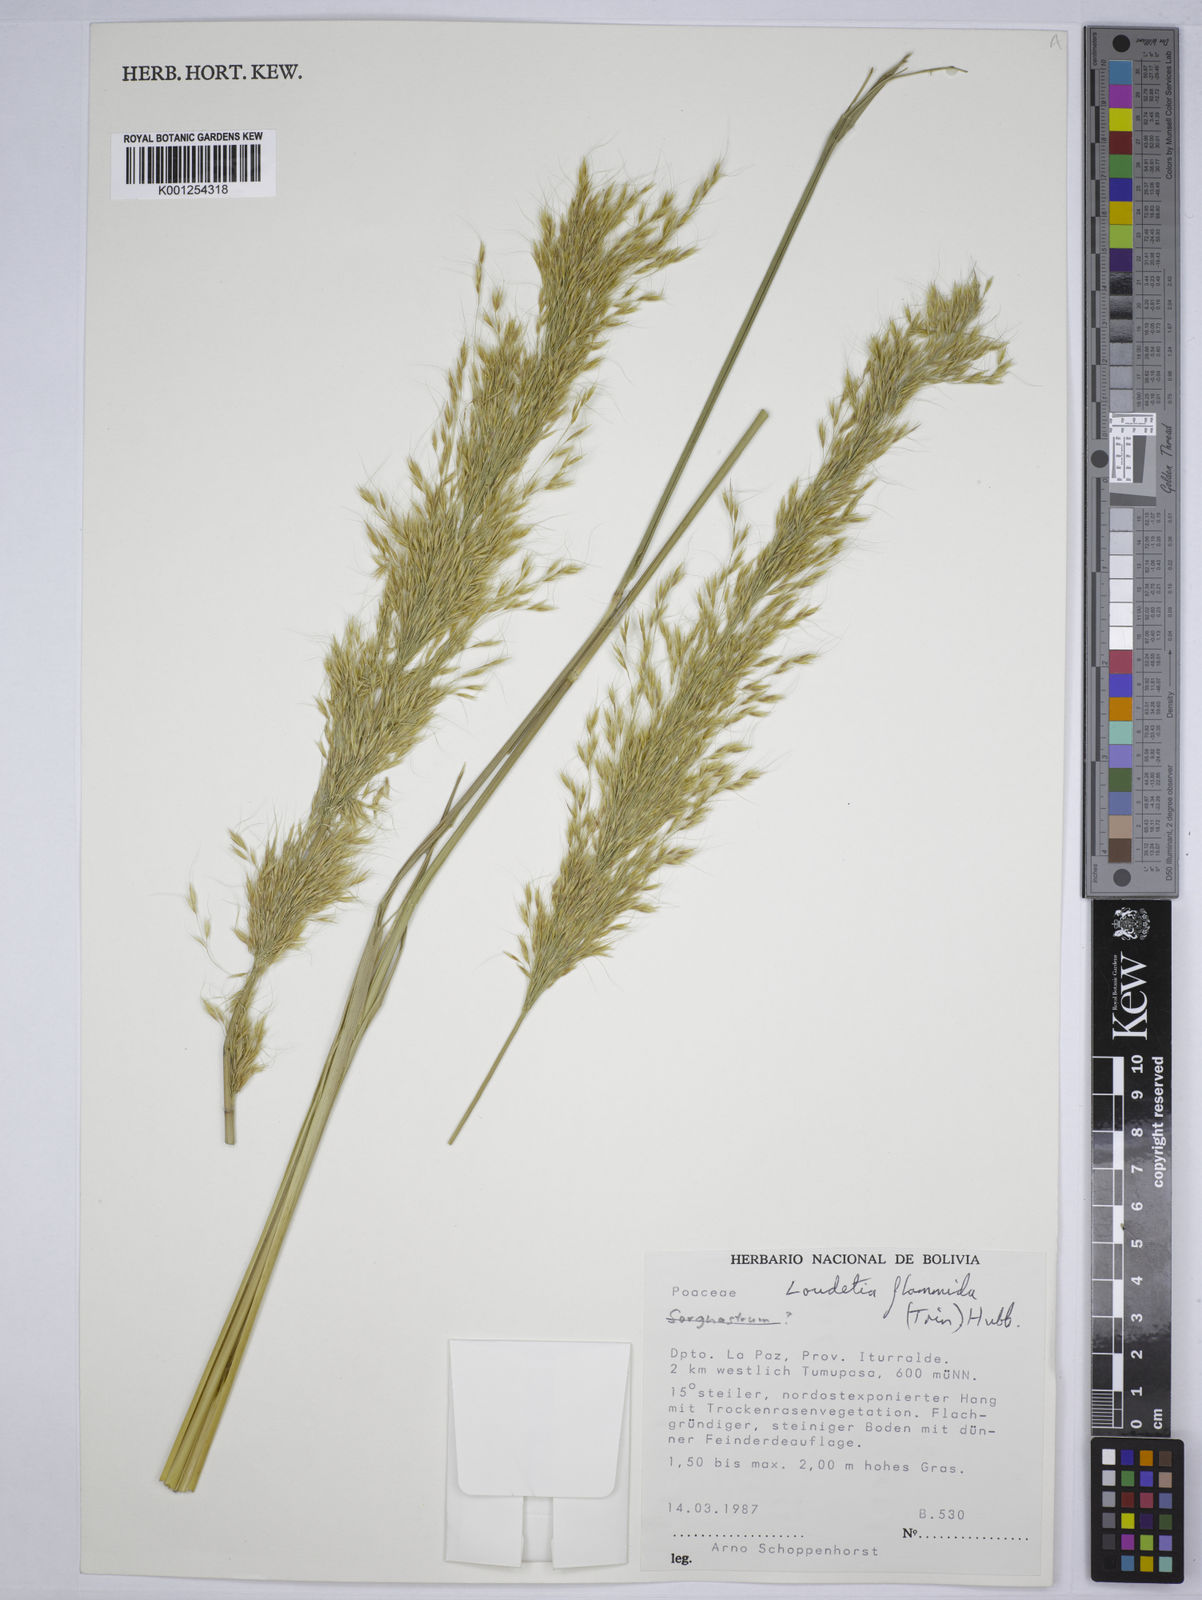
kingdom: Plantae
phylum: Tracheophyta
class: Liliopsida
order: Poales
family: Poaceae
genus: Loudetia
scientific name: Loudetia flammida
